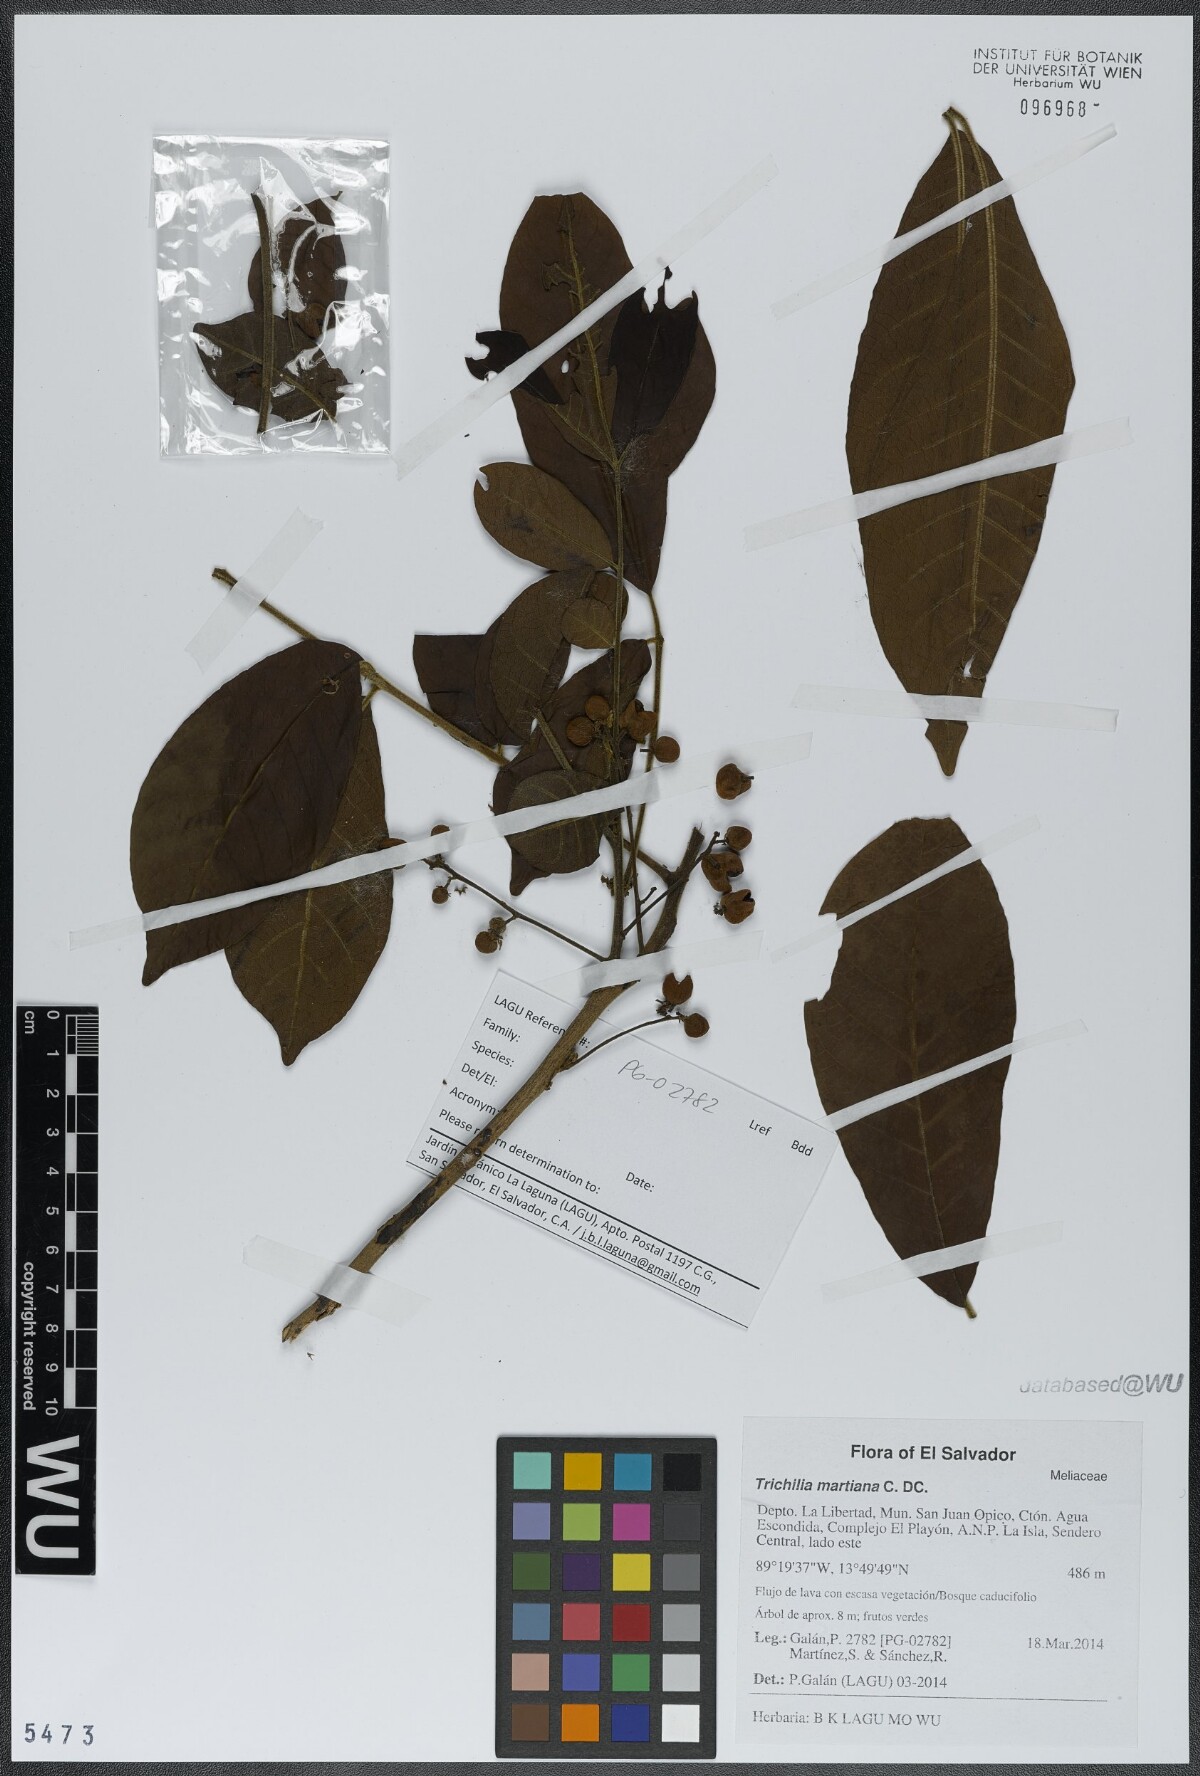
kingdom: Plantae
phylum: Tracheophyta
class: Magnoliopsida
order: Sapindales
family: Meliaceae
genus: Trichilia
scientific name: Trichilia martiana
